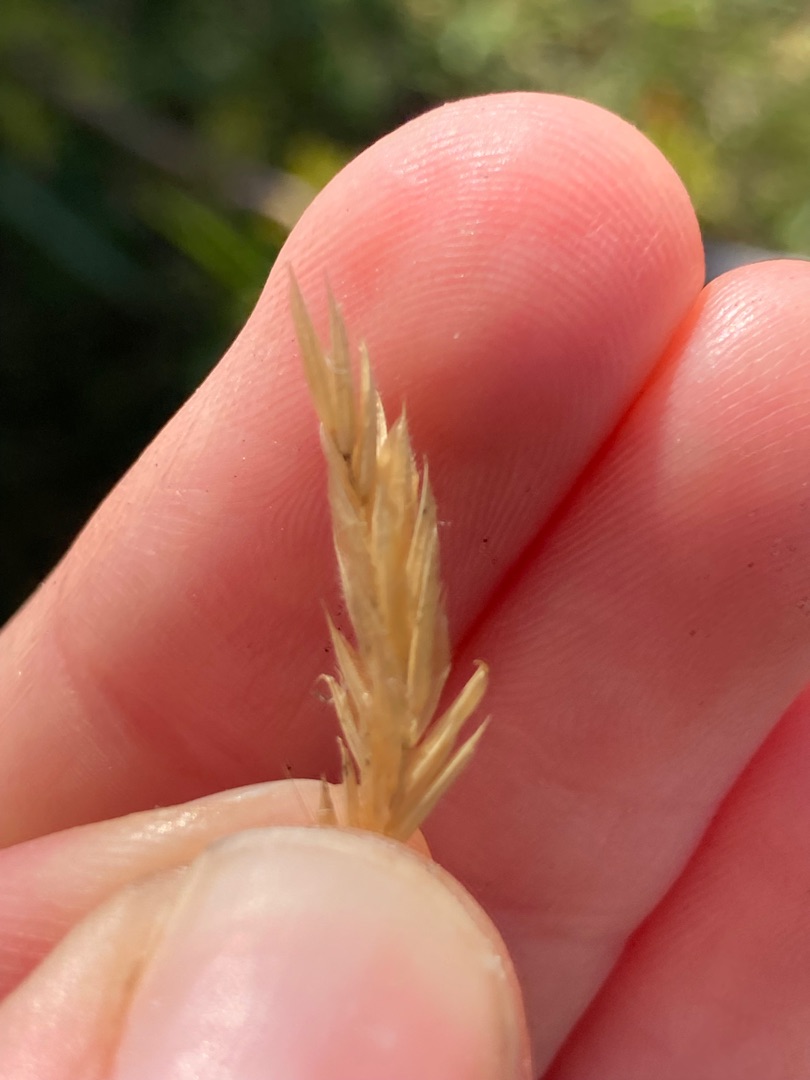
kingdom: Plantae
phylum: Tracheophyta
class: Liliopsida
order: Poales
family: Poaceae
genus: Anthoxanthum
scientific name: Anthoxanthum odoratum
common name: Vellugtende gulaks
